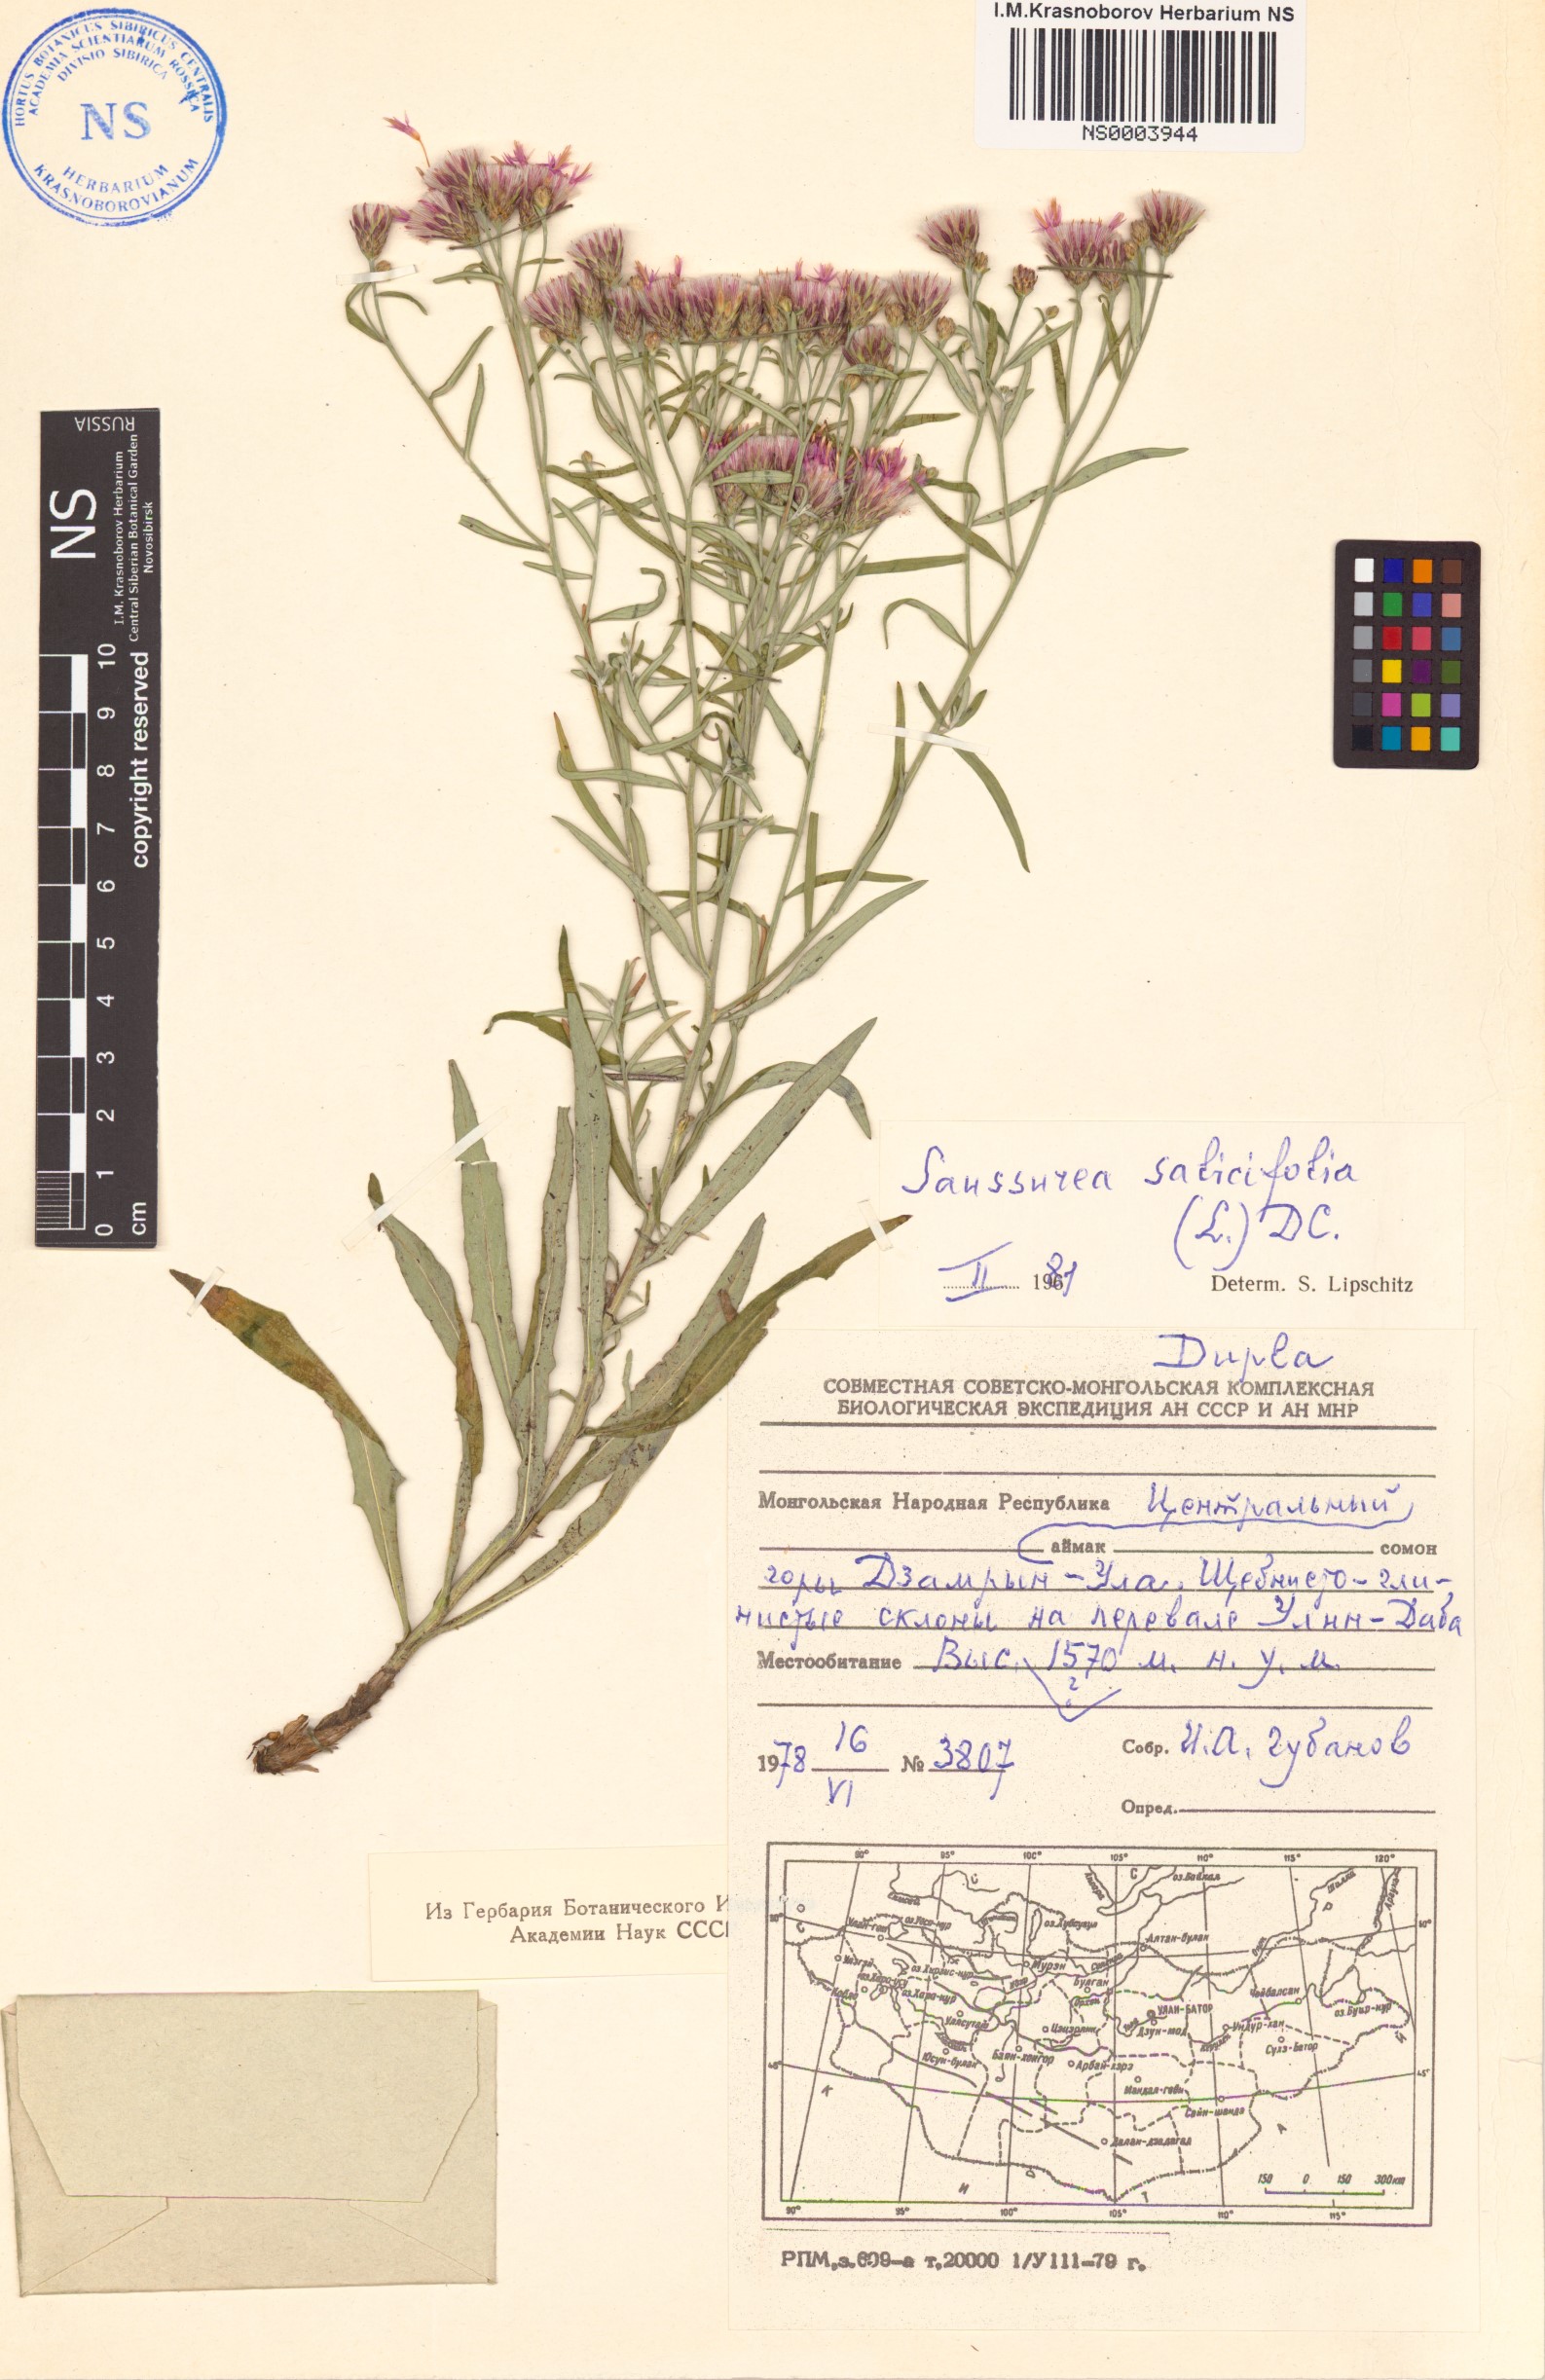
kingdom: Plantae
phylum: Tracheophyta
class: Magnoliopsida
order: Asterales
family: Asteraceae
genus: Saussurea
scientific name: Saussurea salicifolia
